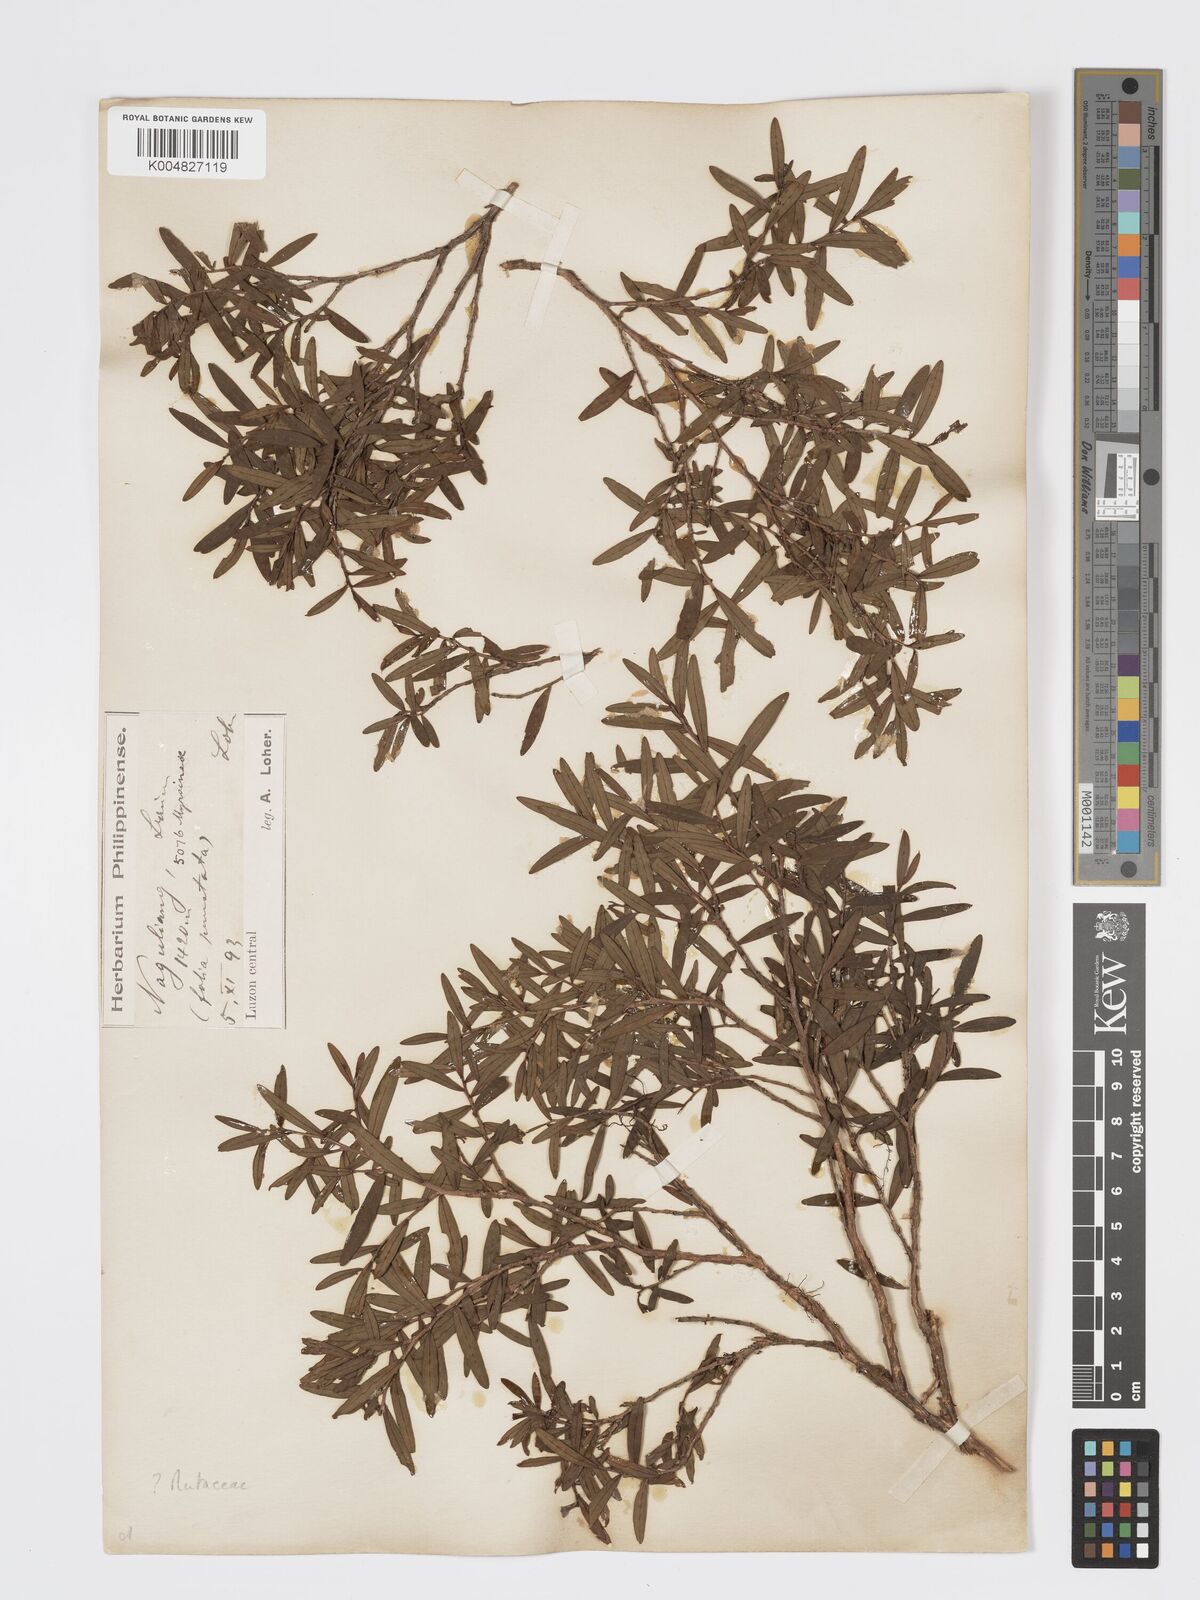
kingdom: Plantae
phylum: Tracheophyta
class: Magnoliopsida
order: Sapindales
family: Rutaceae
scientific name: Rutaceae
